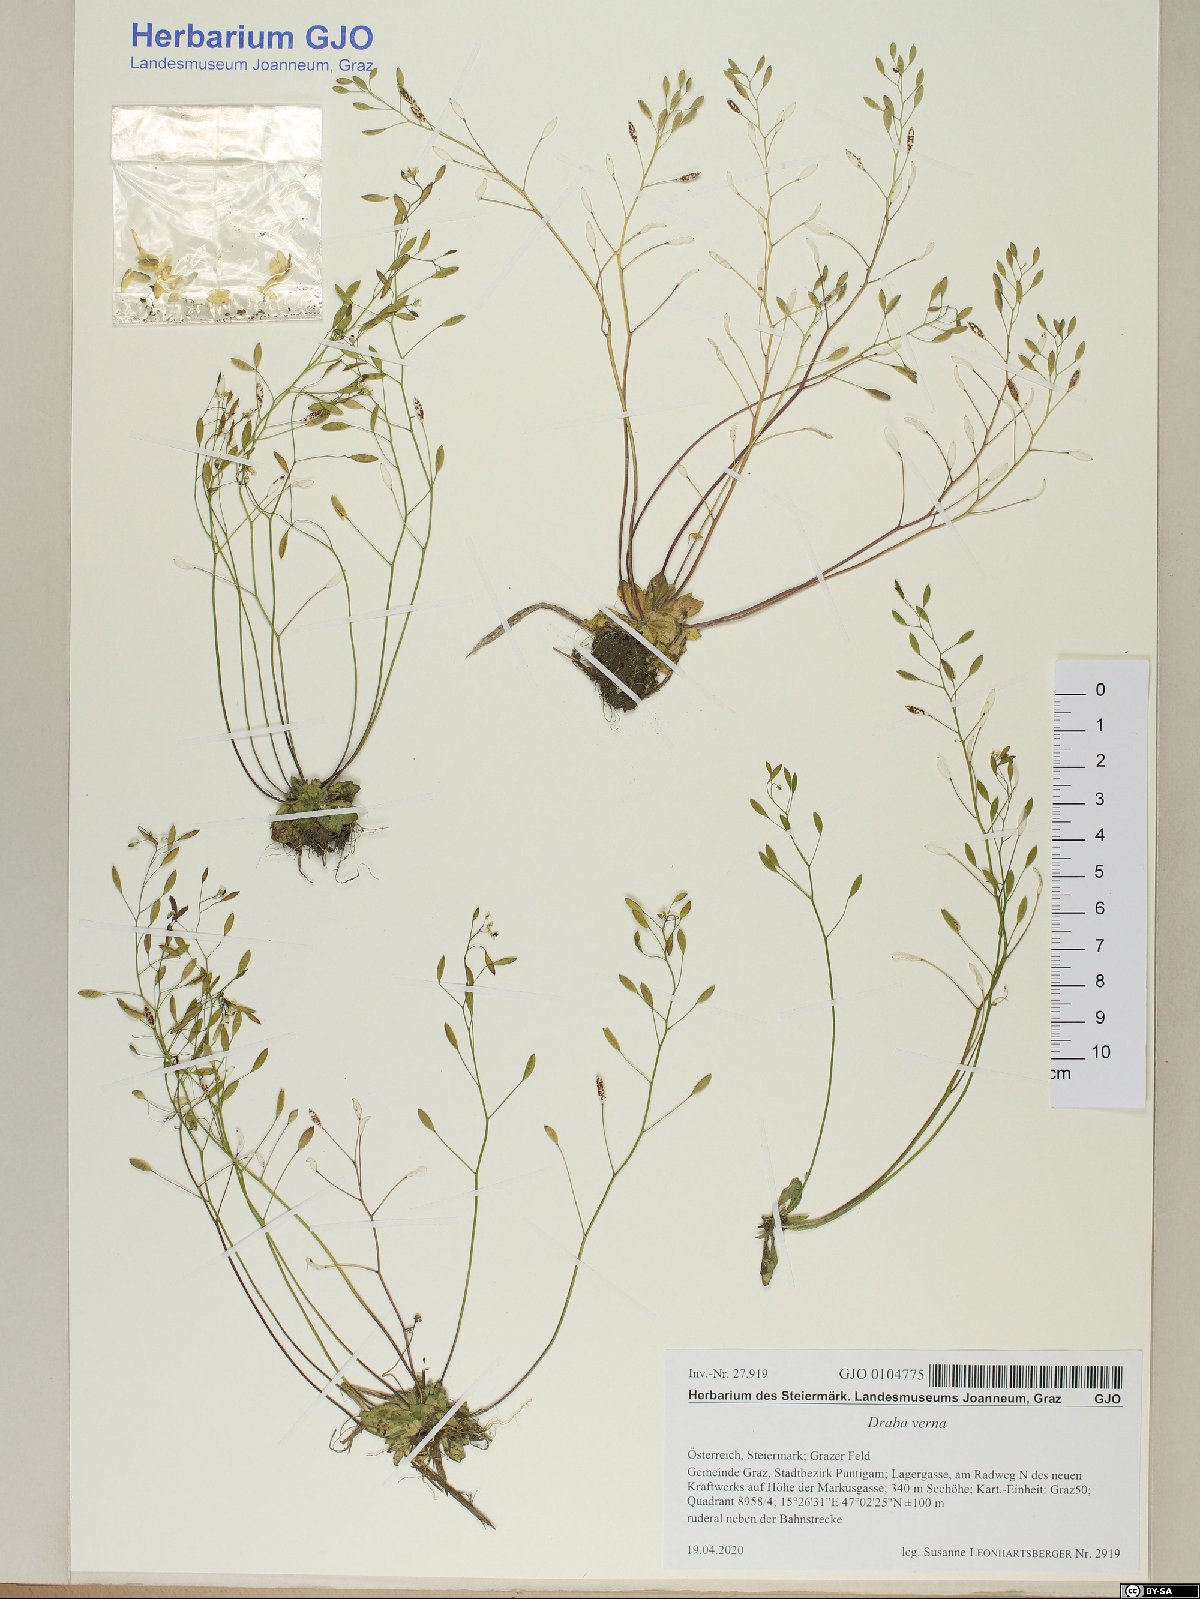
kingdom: Plantae
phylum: Tracheophyta
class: Magnoliopsida
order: Brassicales
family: Brassicaceae
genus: Draba
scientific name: Draba verna
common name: Spring draba
